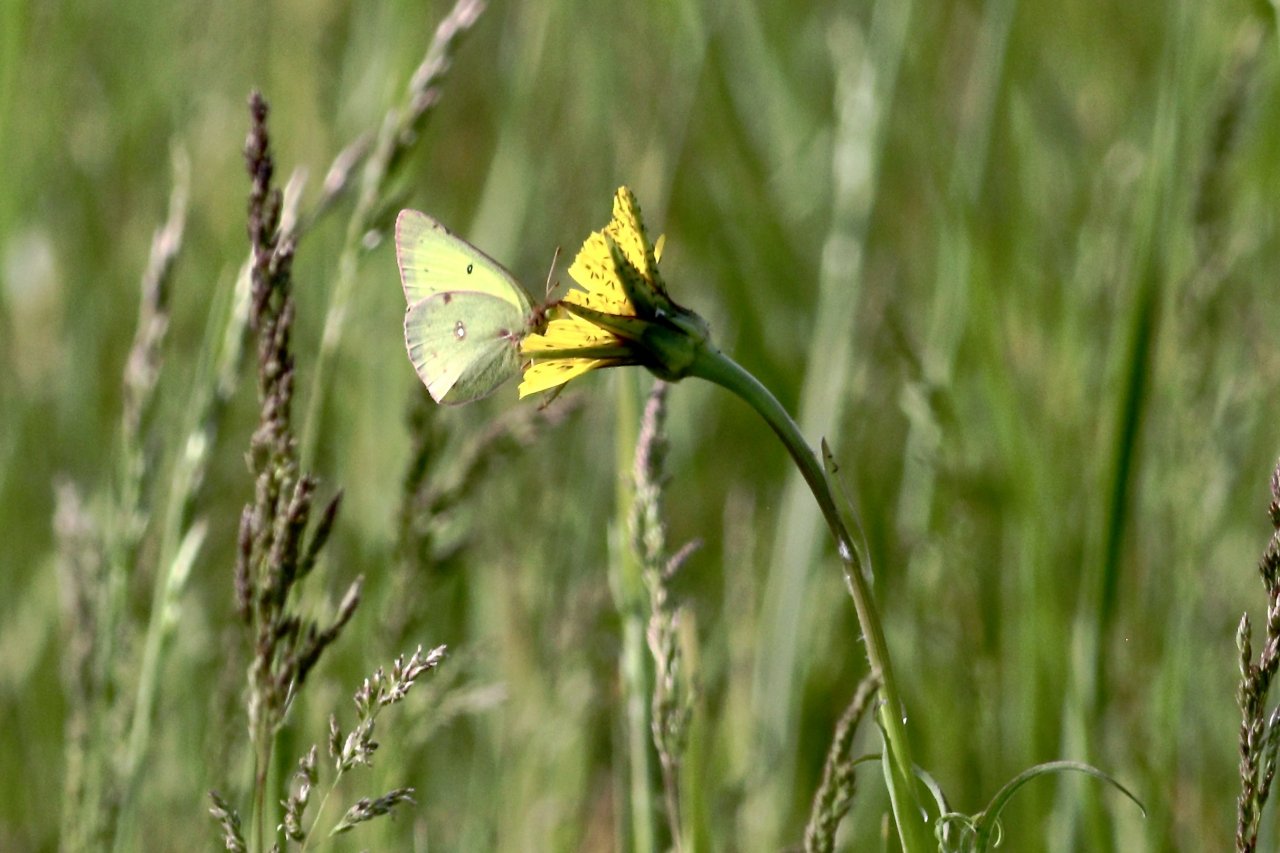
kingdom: Animalia
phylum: Arthropoda
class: Insecta
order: Lepidoptera
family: Pieridae
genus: Colias
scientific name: Colias philodice
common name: Clouded Sulphur
